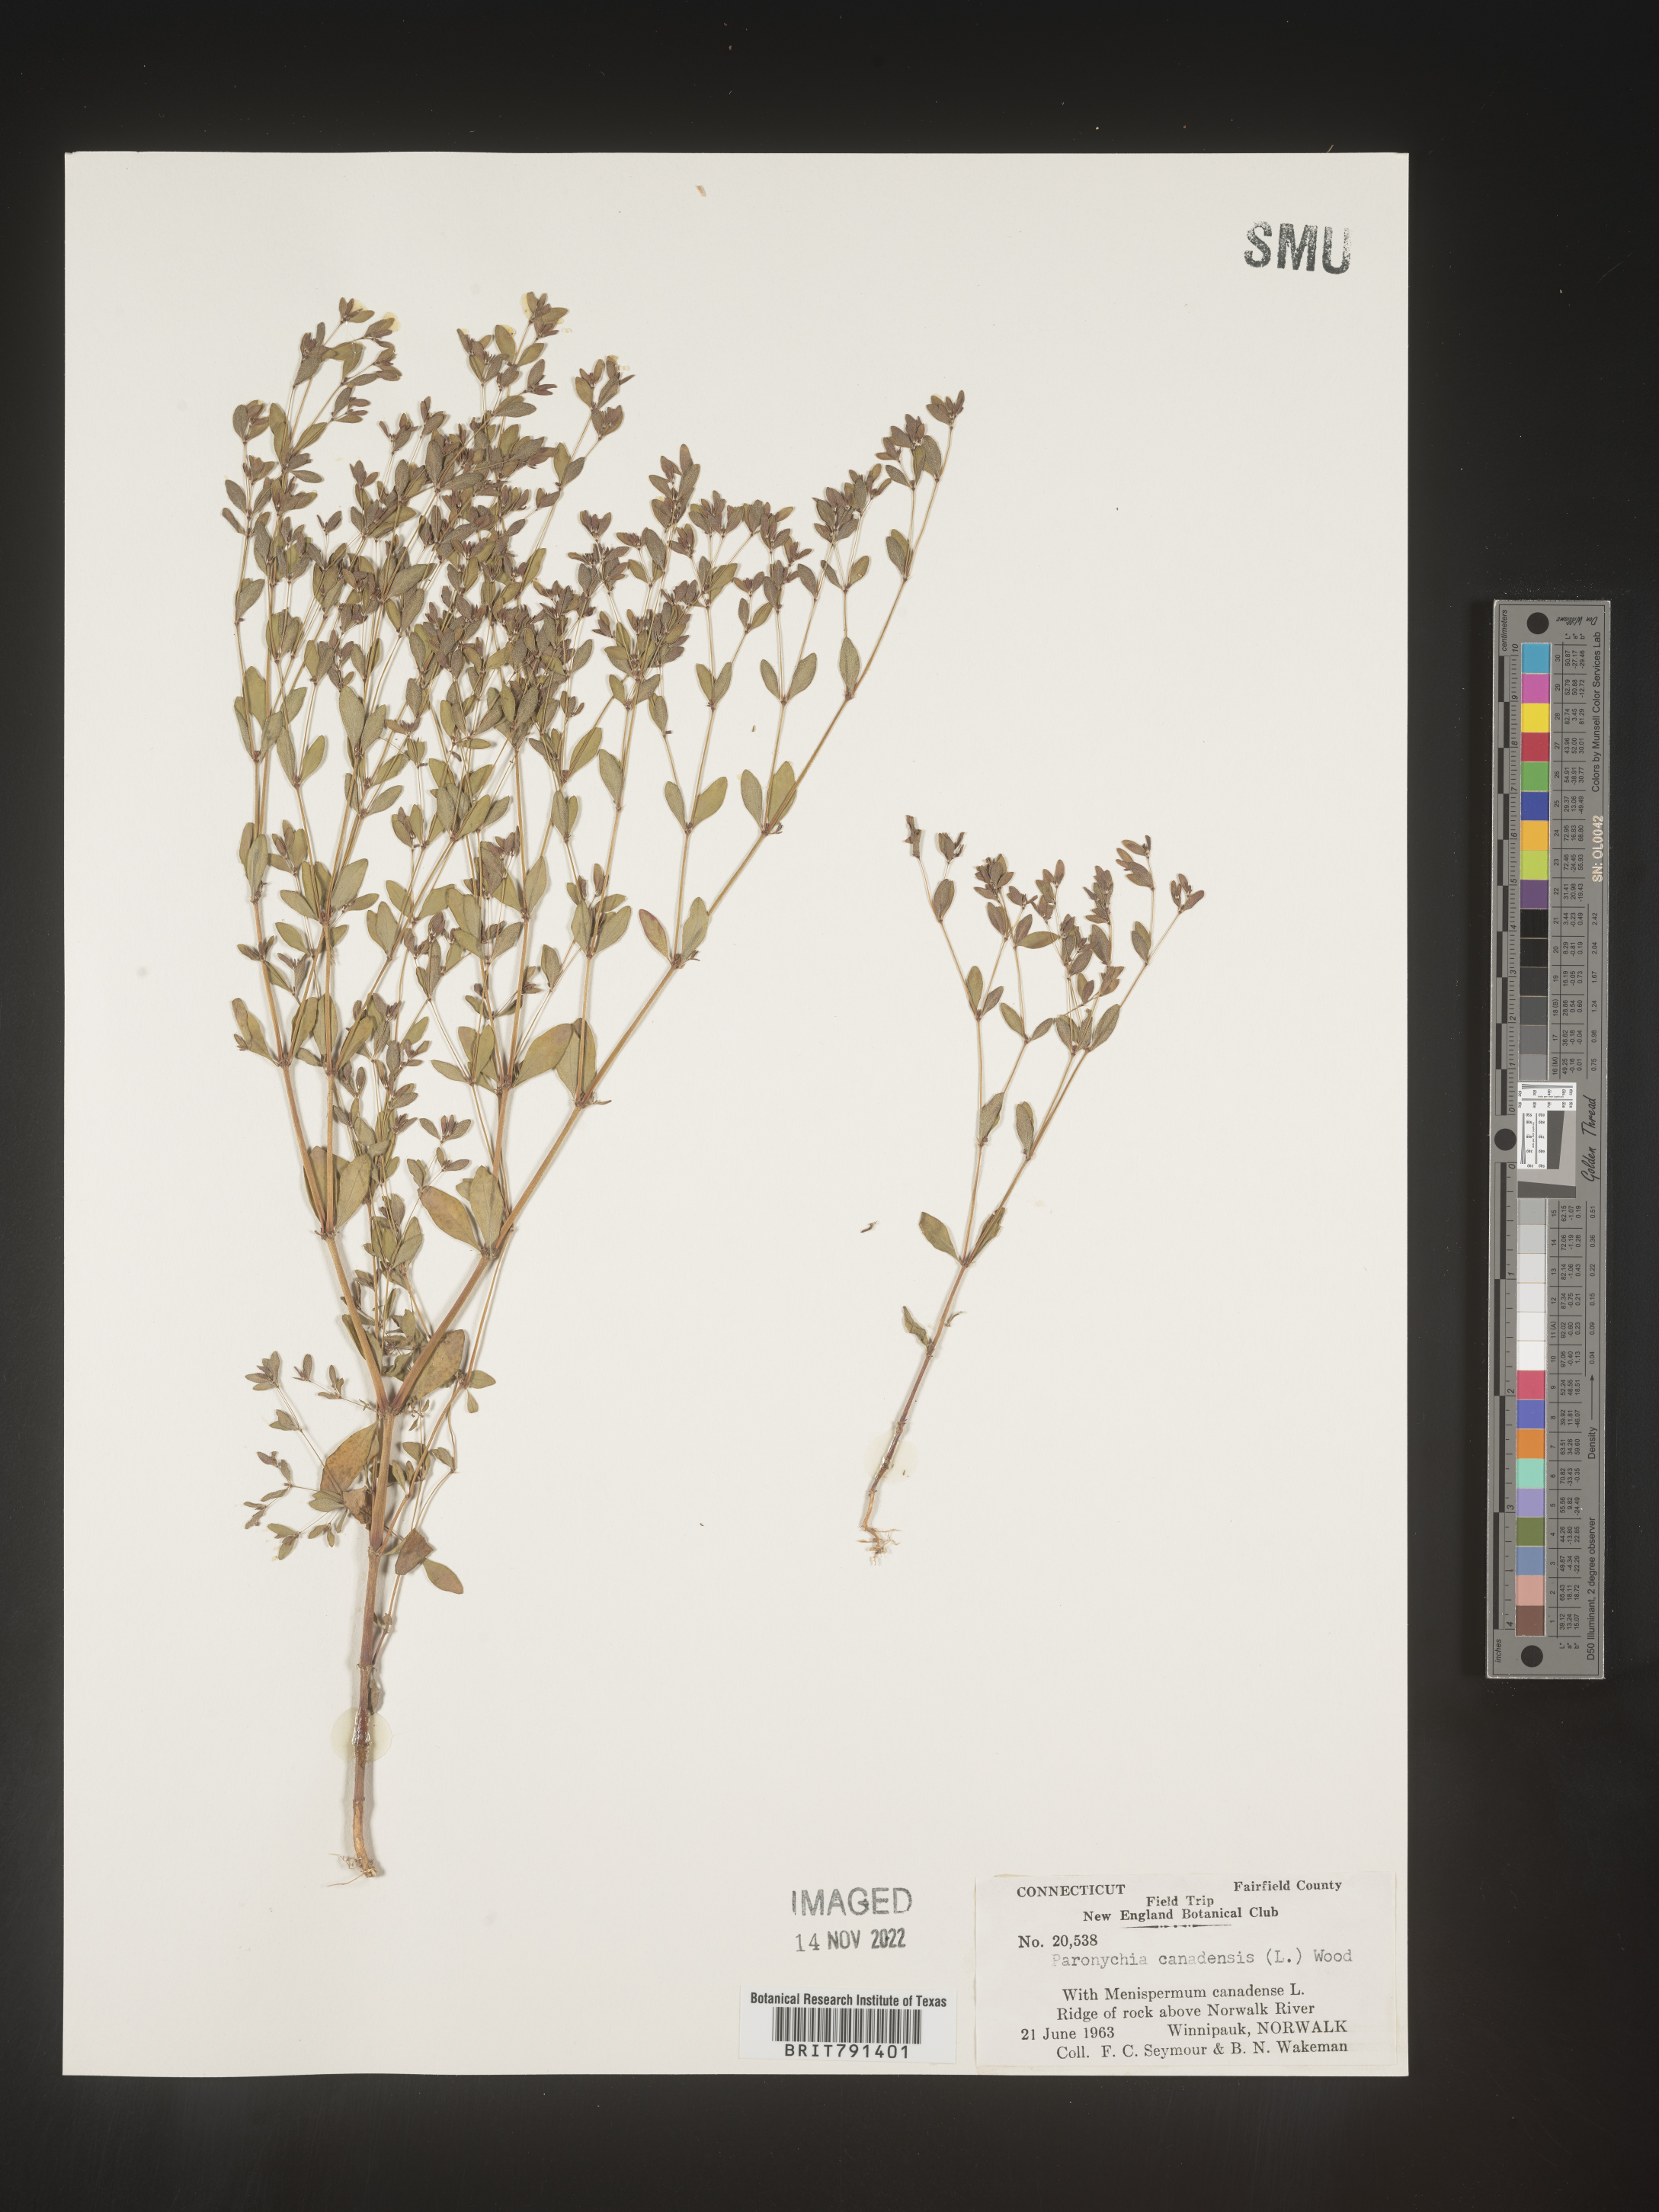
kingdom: Plantae
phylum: Tracheophyta
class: Magnoliopsida
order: Caryophyllales
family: Caryophyllaceae
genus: Paronychia
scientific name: Paronychia canadensis
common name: Canada forked nailwort
